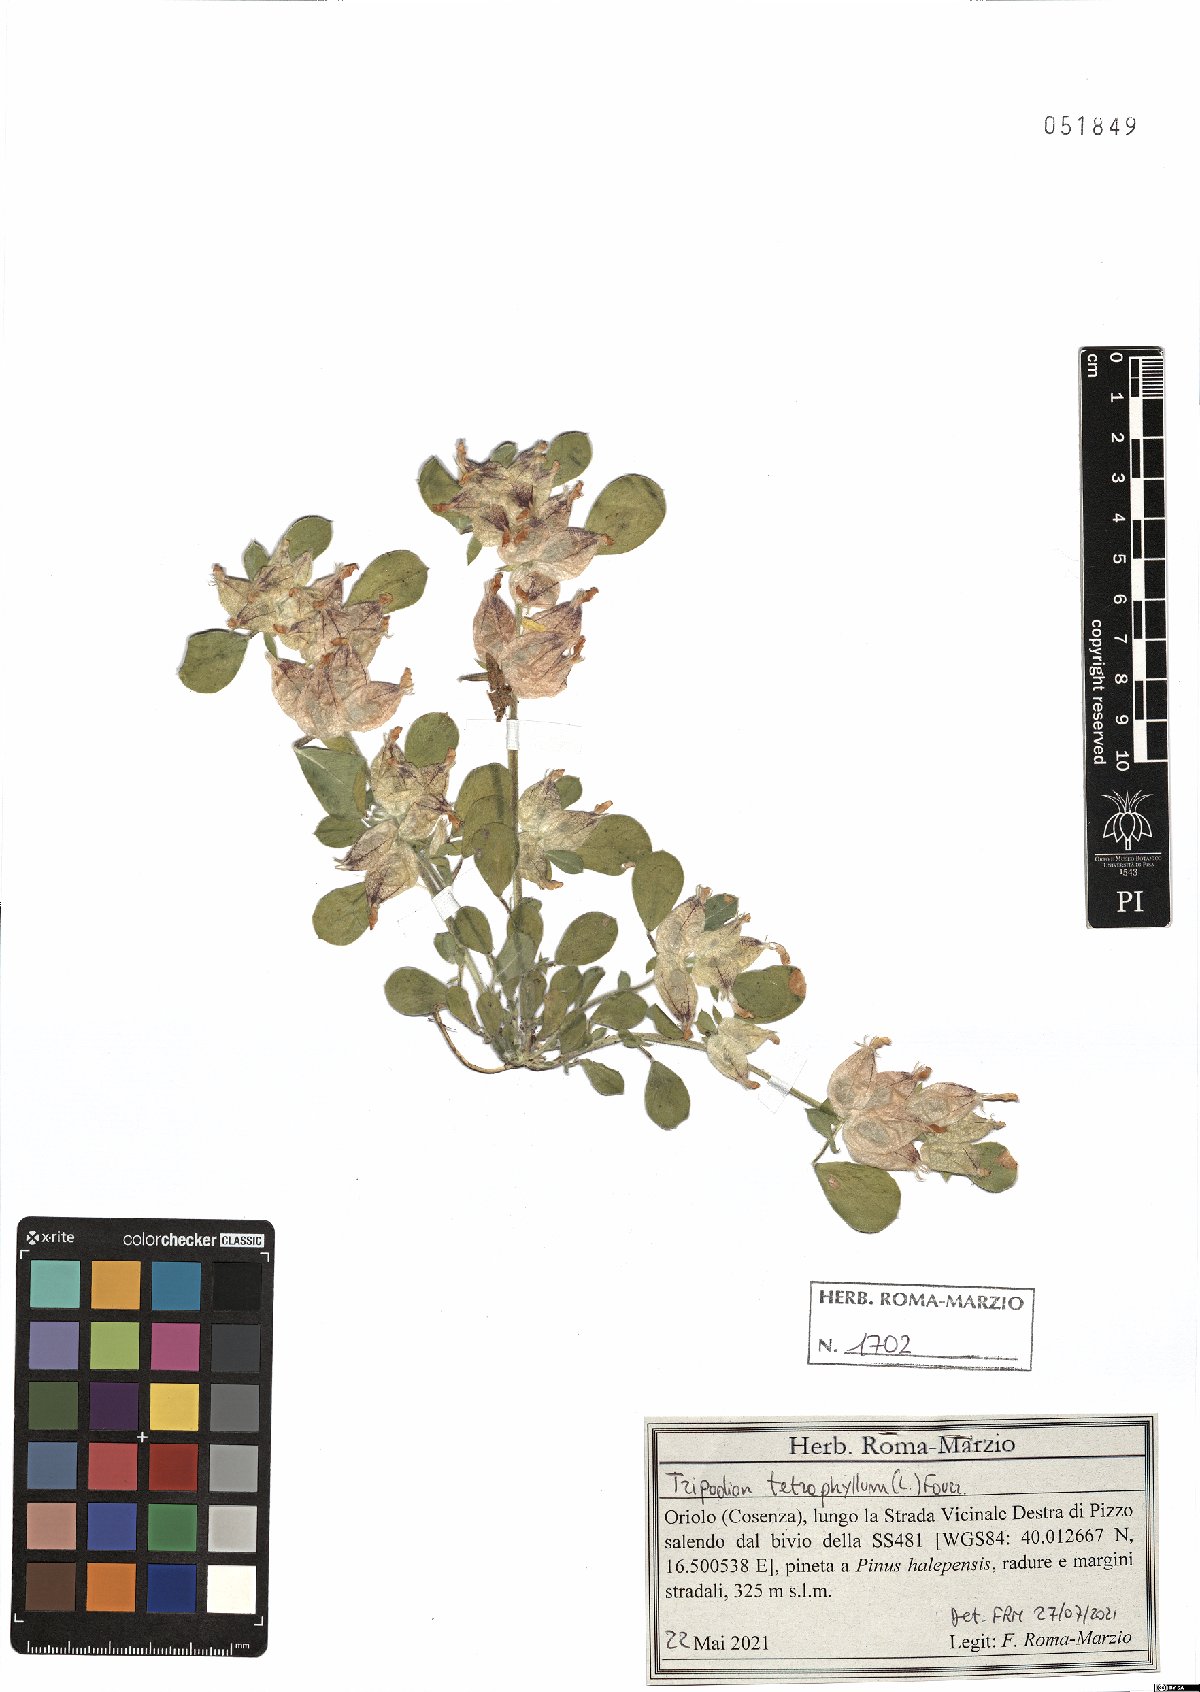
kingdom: Plantae
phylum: Tracheophyta
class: Magnoliopsida
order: Fabales
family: Fabaceae
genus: Tripodion
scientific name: Tripodion tetraphyllum
